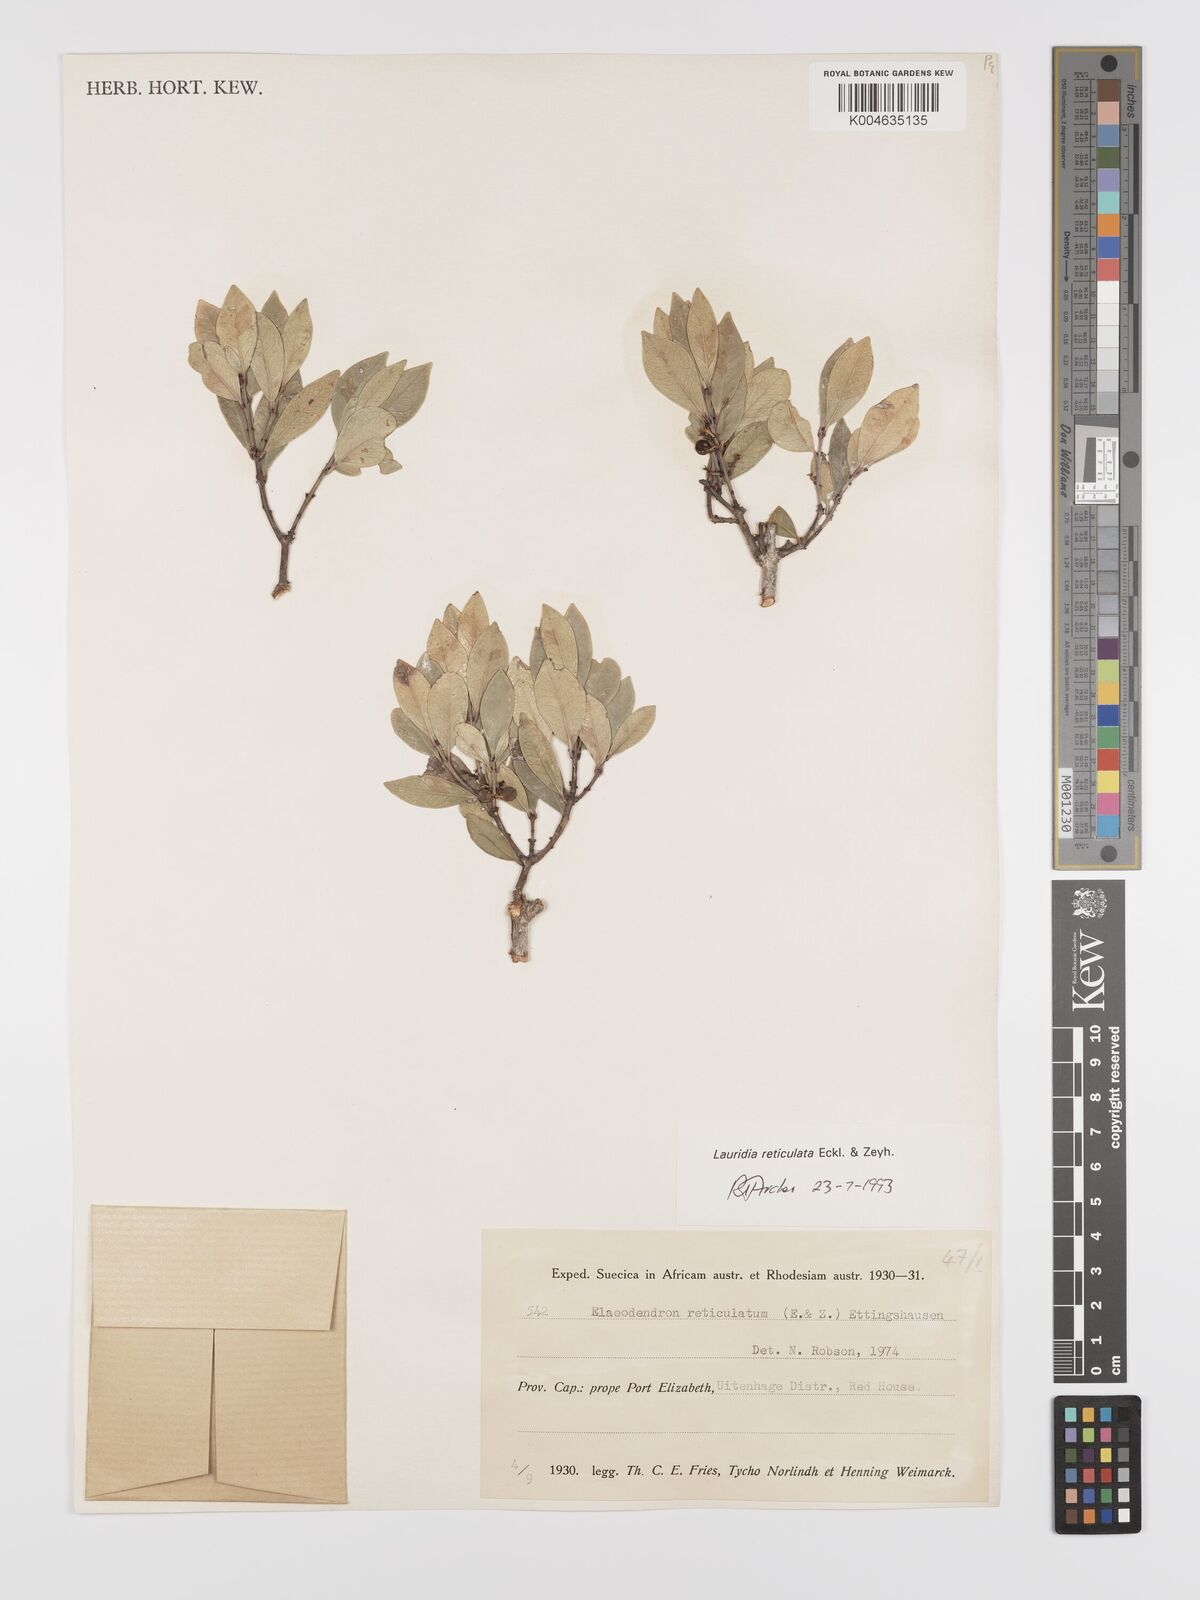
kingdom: Plantae
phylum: Tracheophyta
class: Magnoliopsida
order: Celastrales
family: Celastraceae
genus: Lauridia
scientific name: Lauridia reticulata
